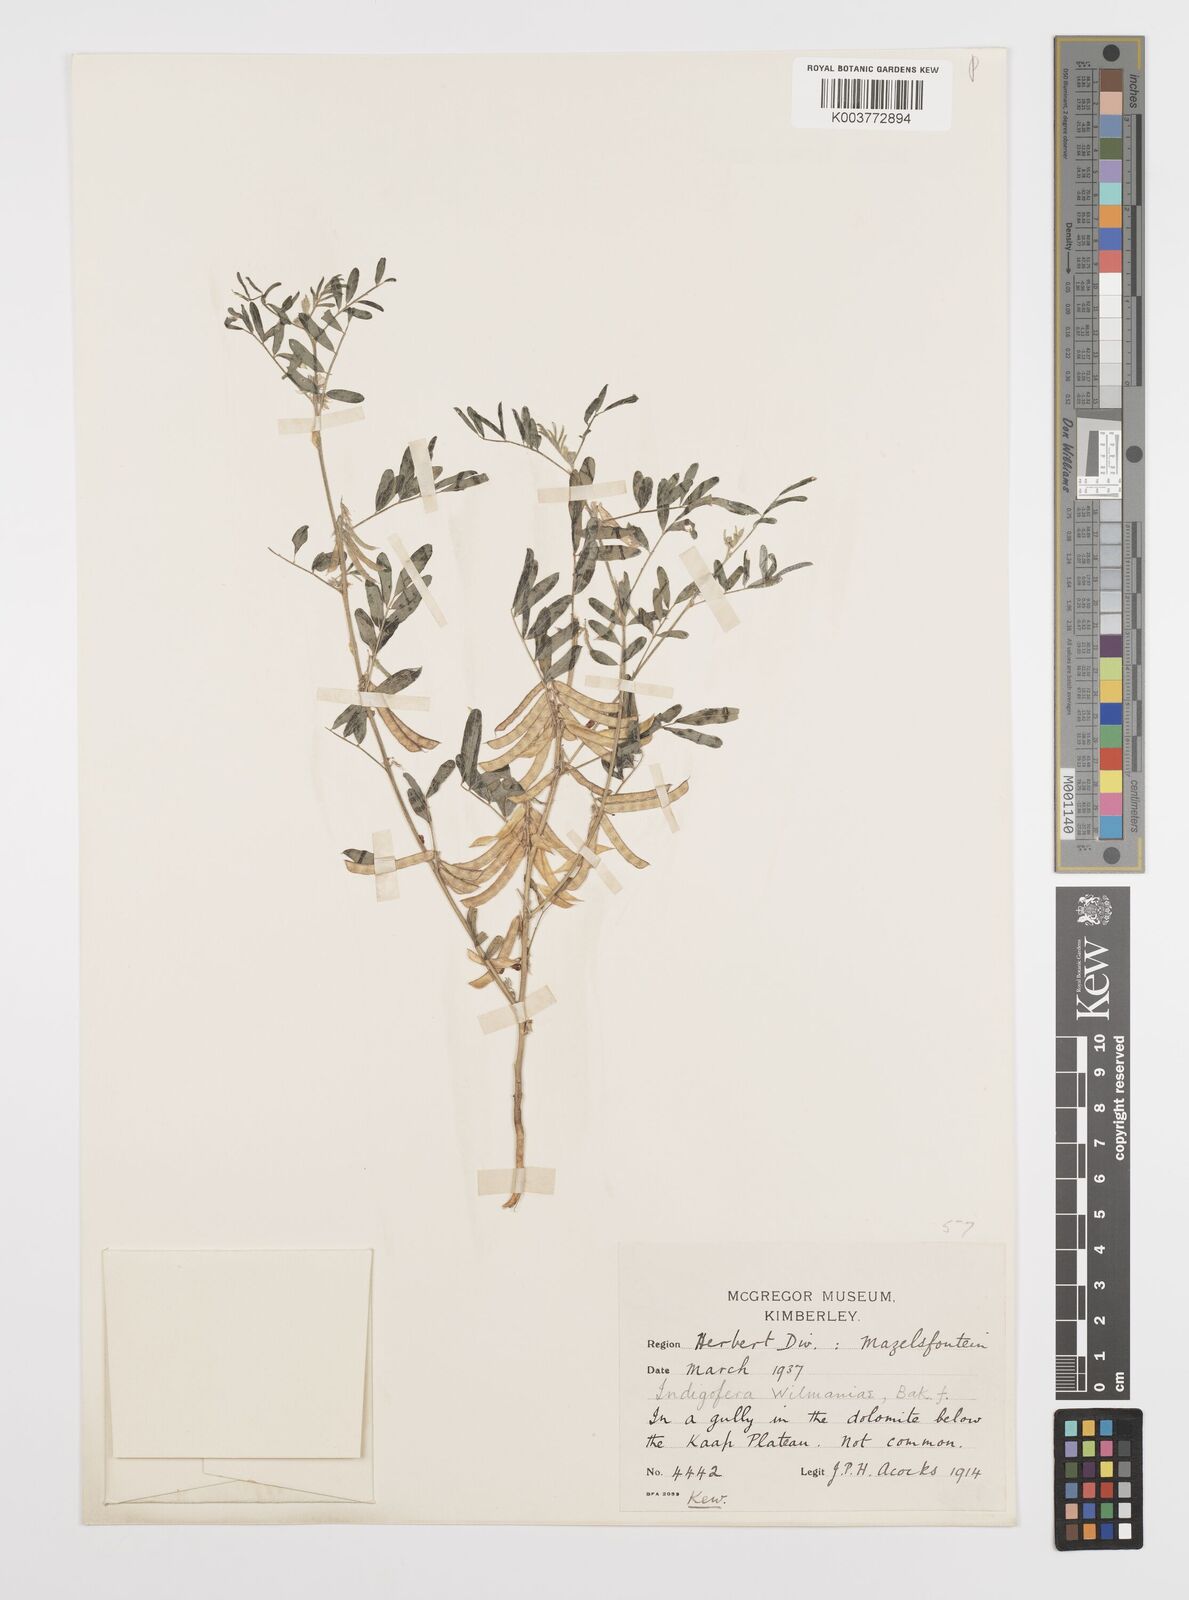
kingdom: Plantae
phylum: Tracheophyta
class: Magnoliopsida
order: Fabales
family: Fabaceae
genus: Indigofera
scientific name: Indigofera damarana
